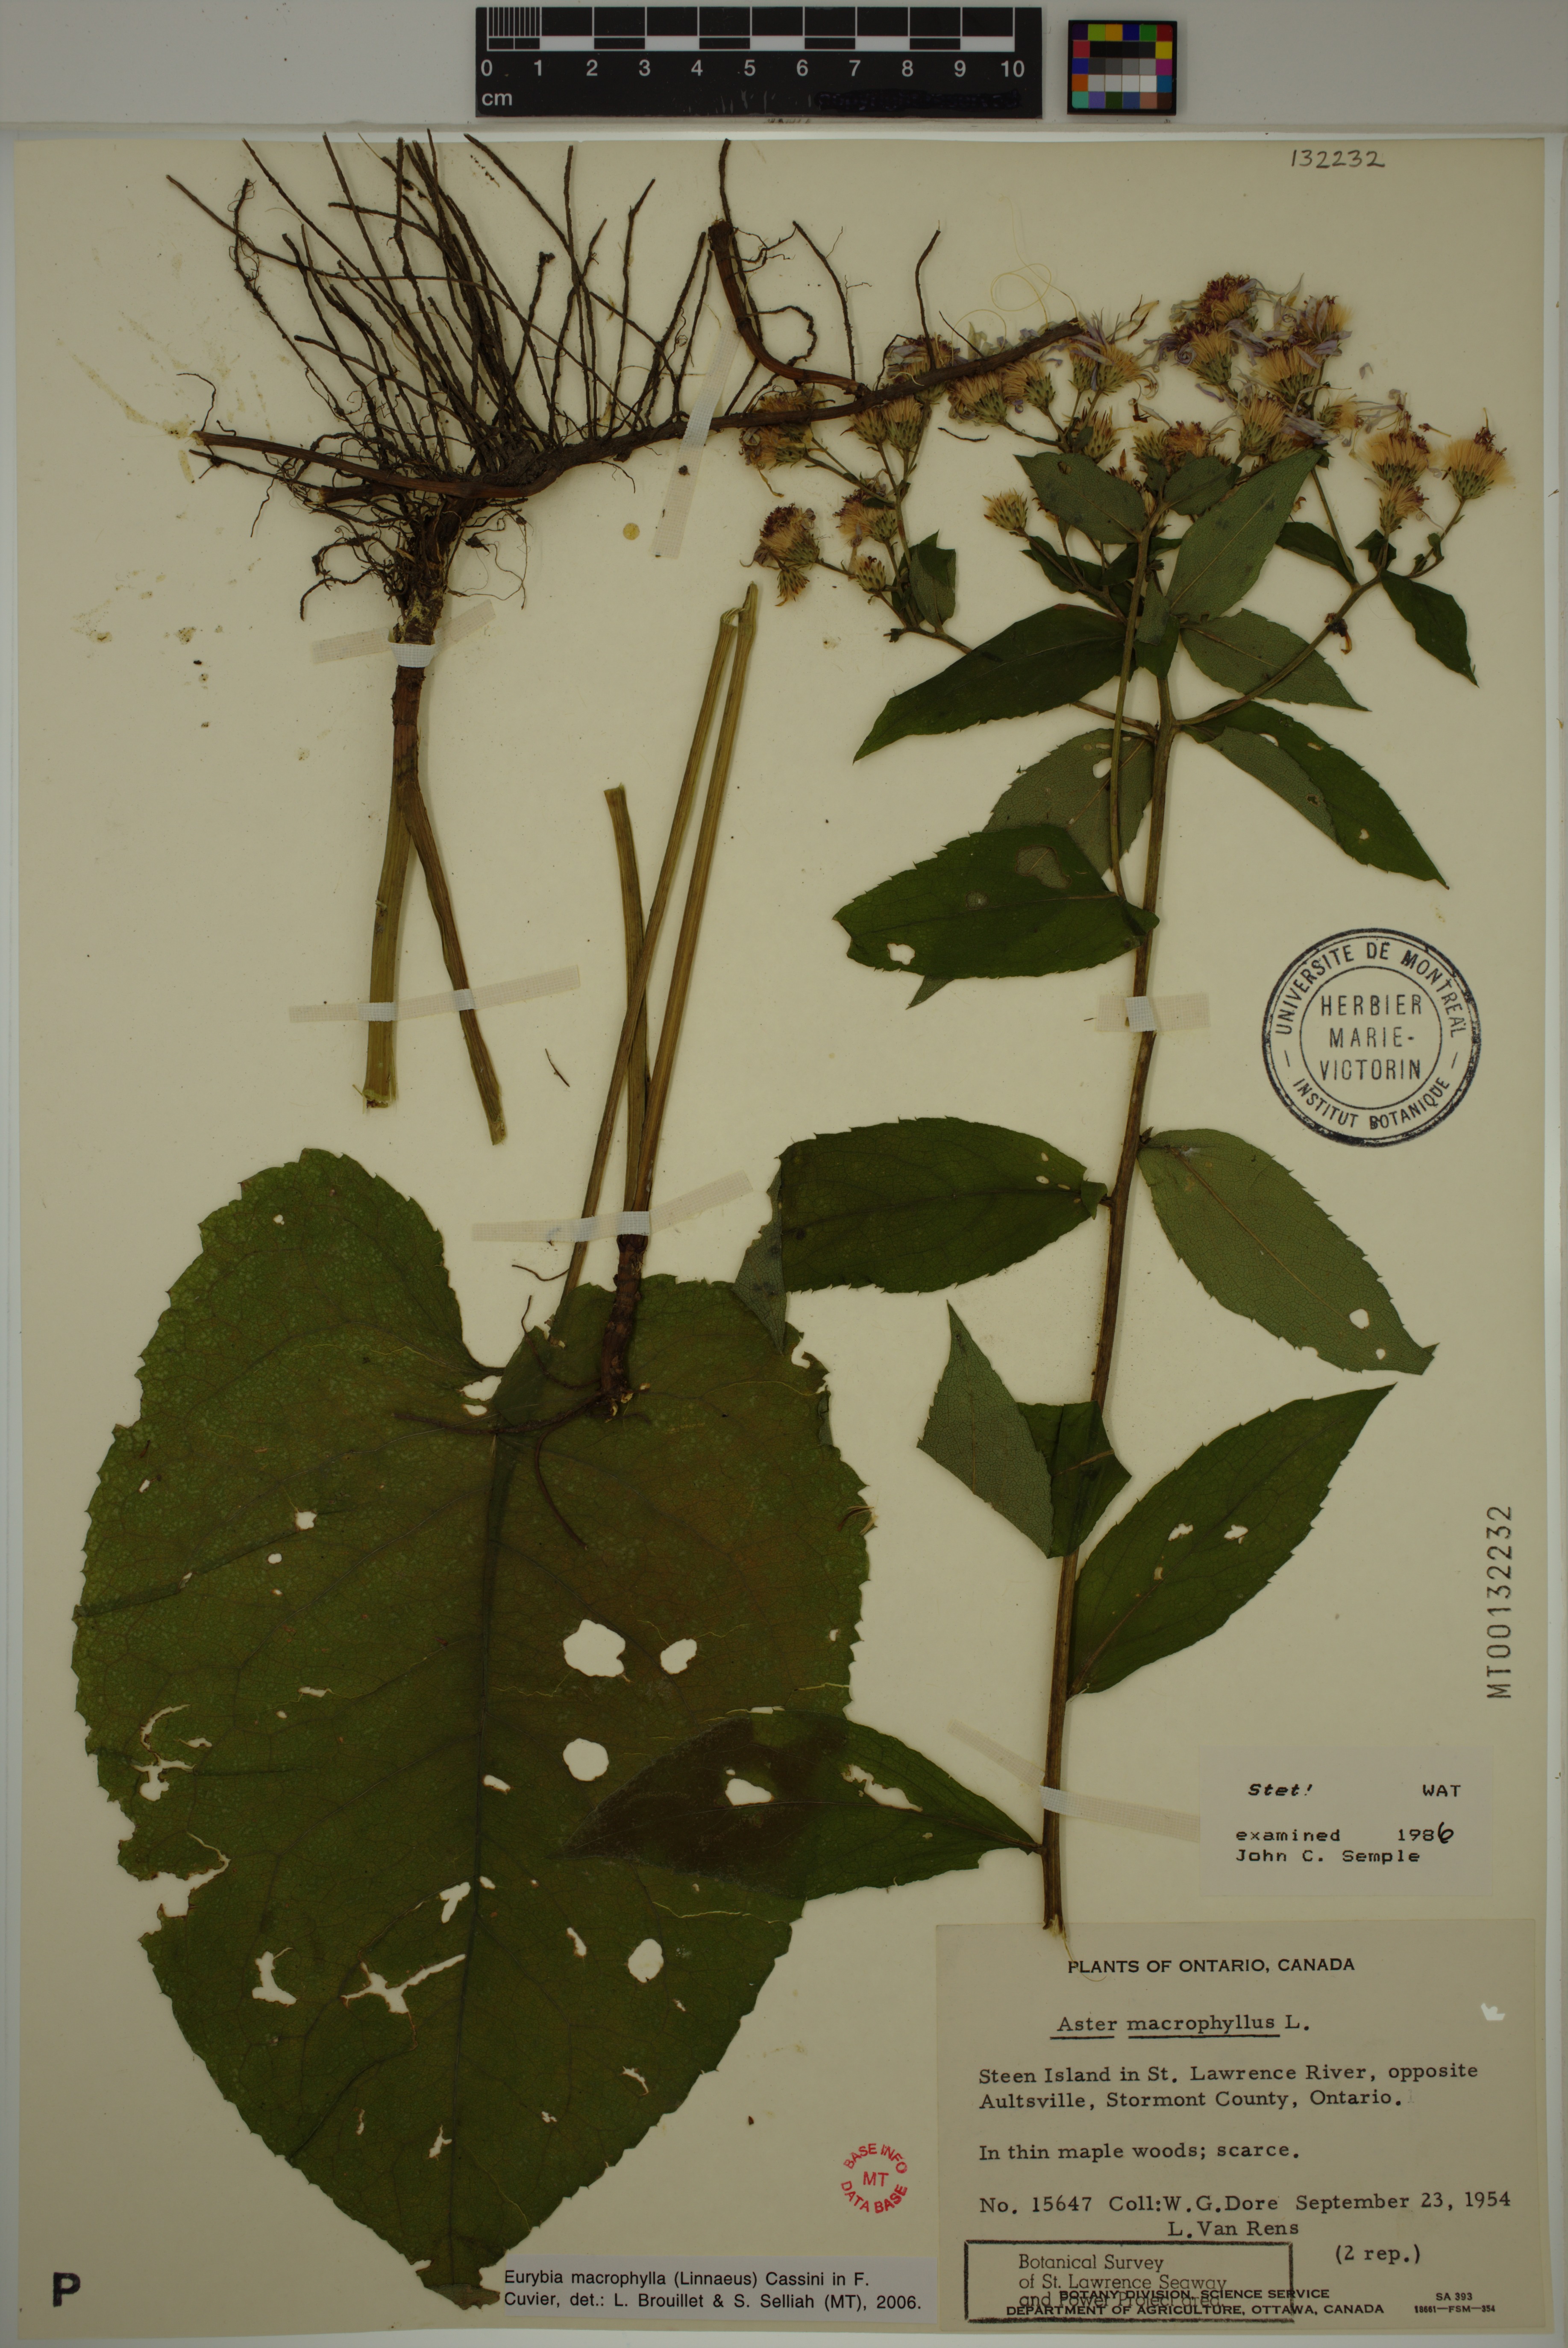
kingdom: Plantae
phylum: Tracheophyta
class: Magnoliopsida
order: Asterales
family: Asteraceae
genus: Eurybia
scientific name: Eurybia macrophylla
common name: Big-leaved aster
